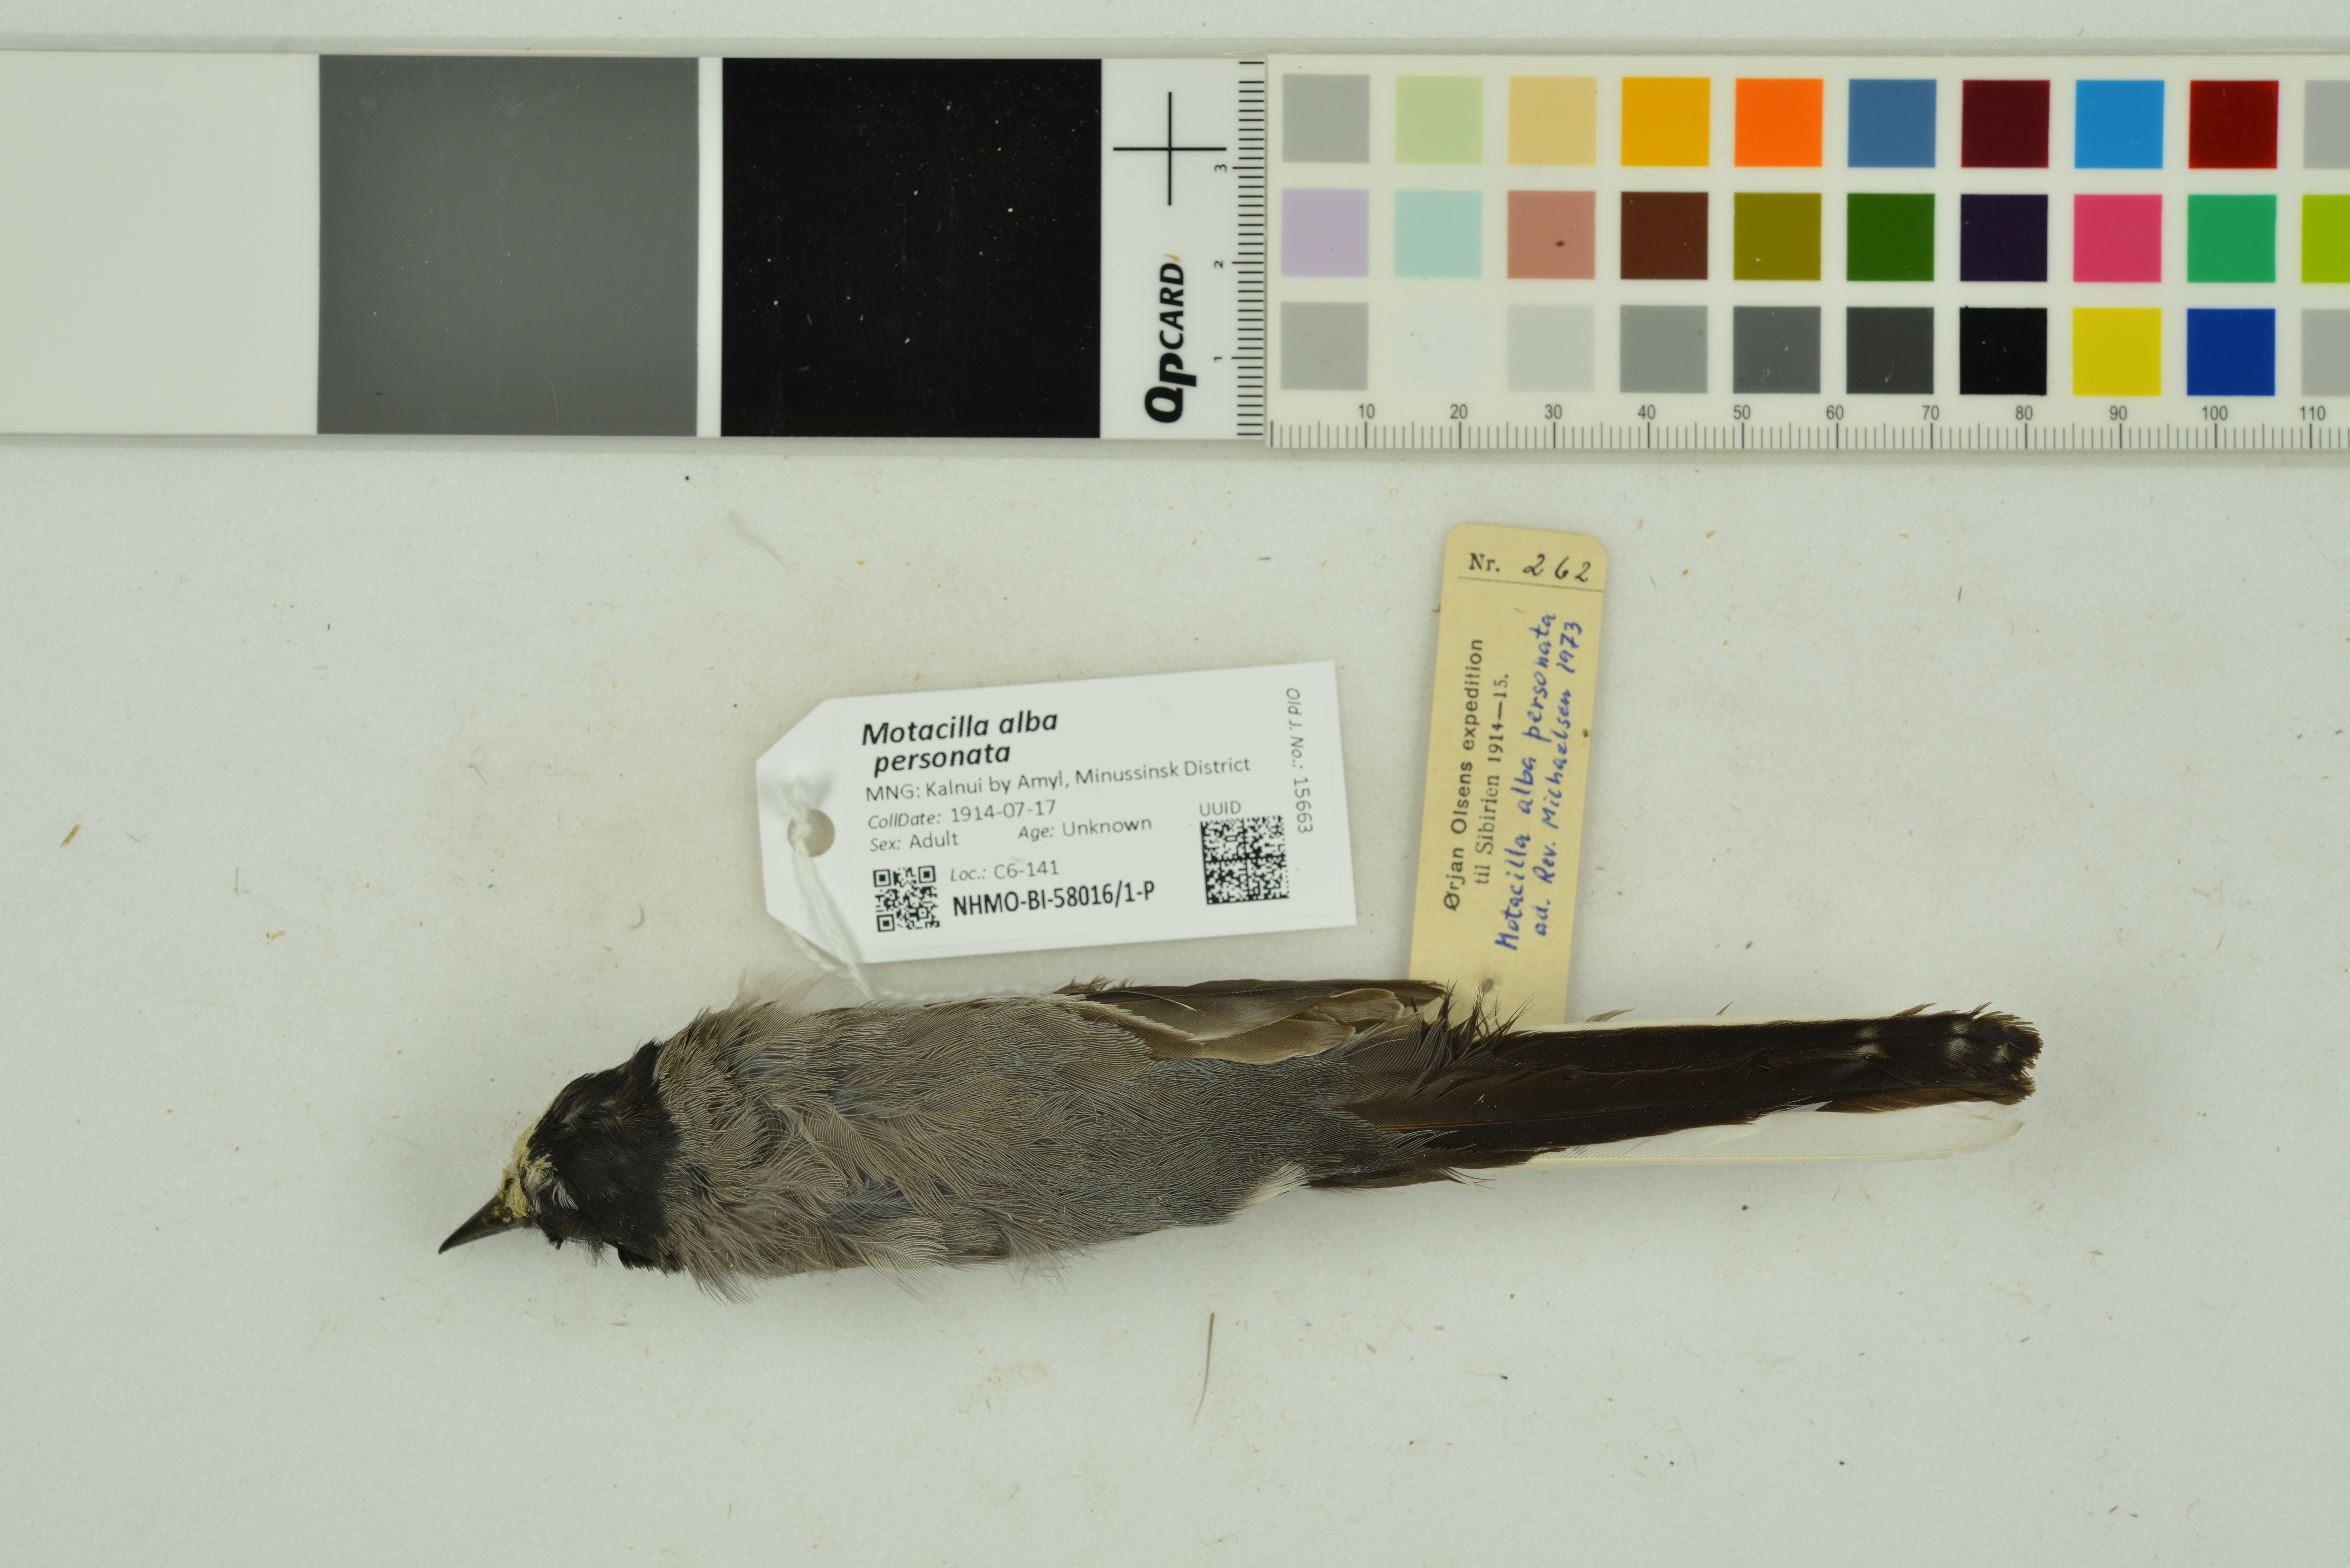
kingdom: Animalia
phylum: Chordata
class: Aves
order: Passeriformes
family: Motacillidae
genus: Motacilla
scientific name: Motacilla alba
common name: White wagtail
